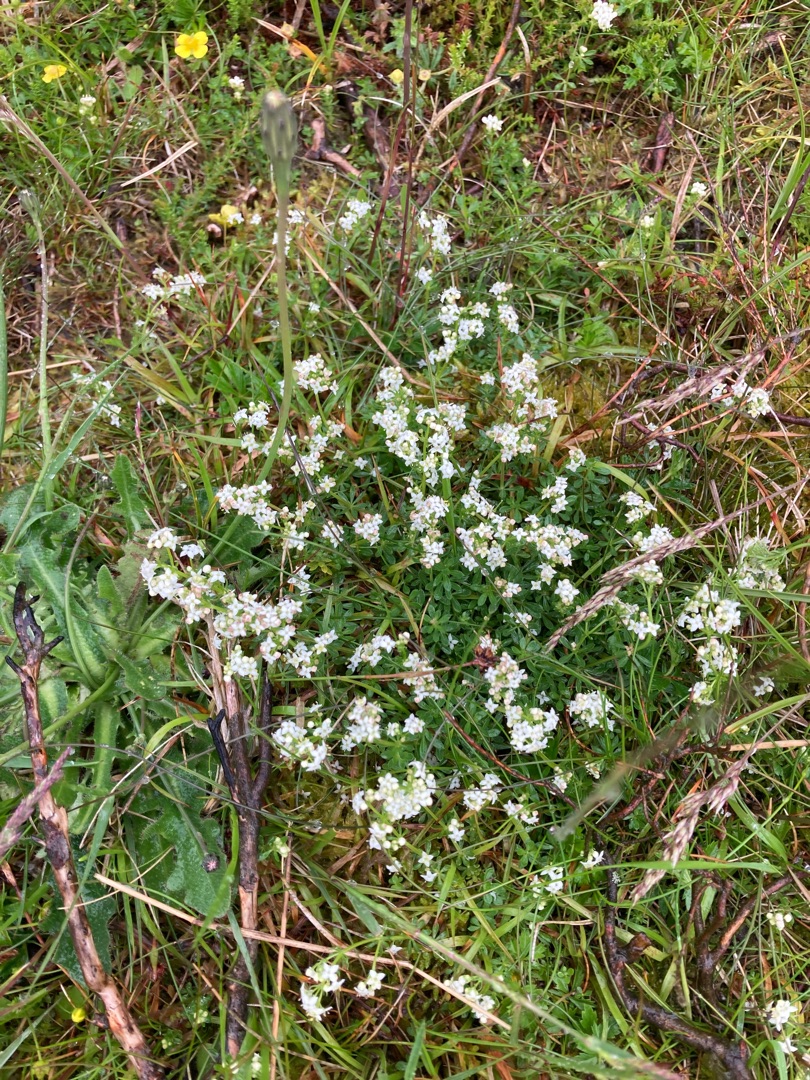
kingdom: Plantae
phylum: Tracheophyta
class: Magnoliopsida
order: Gentianales
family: Rubiaceae
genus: Galium
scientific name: Galium saxatile
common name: Lyng-snerre
